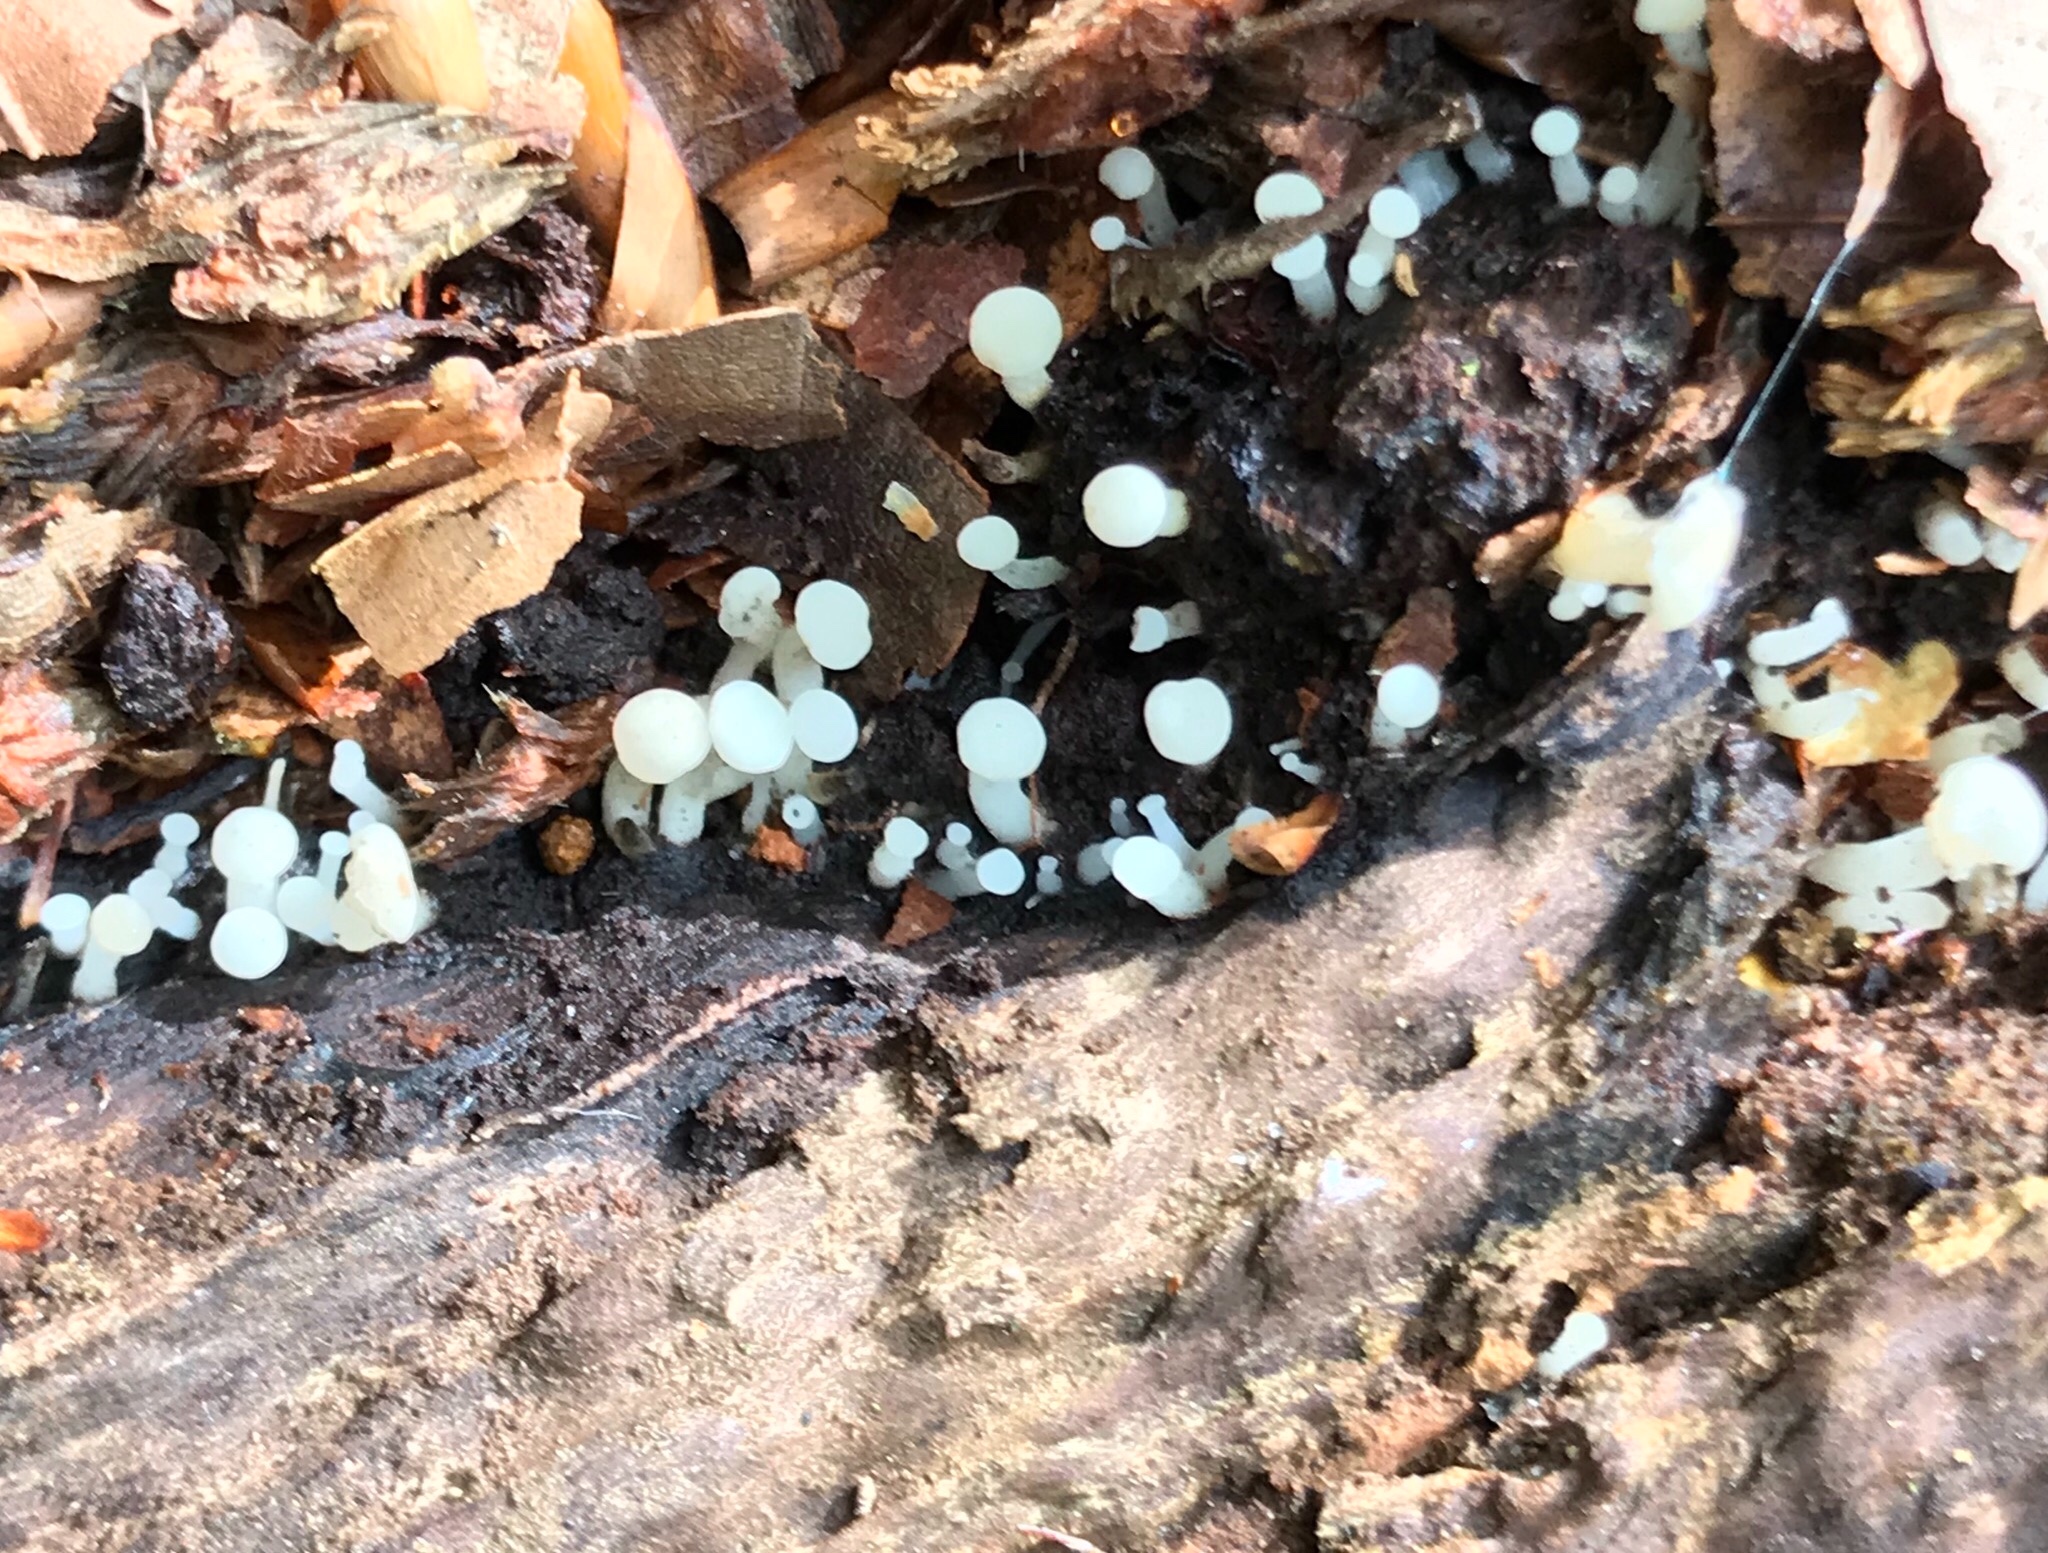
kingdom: Fungi
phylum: Ascomycota
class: Leotiomycetes
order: Helotiales
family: Tricladiaceae
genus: Cudoniella
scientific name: Cudoniella acicularis
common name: ege-dyndskive
